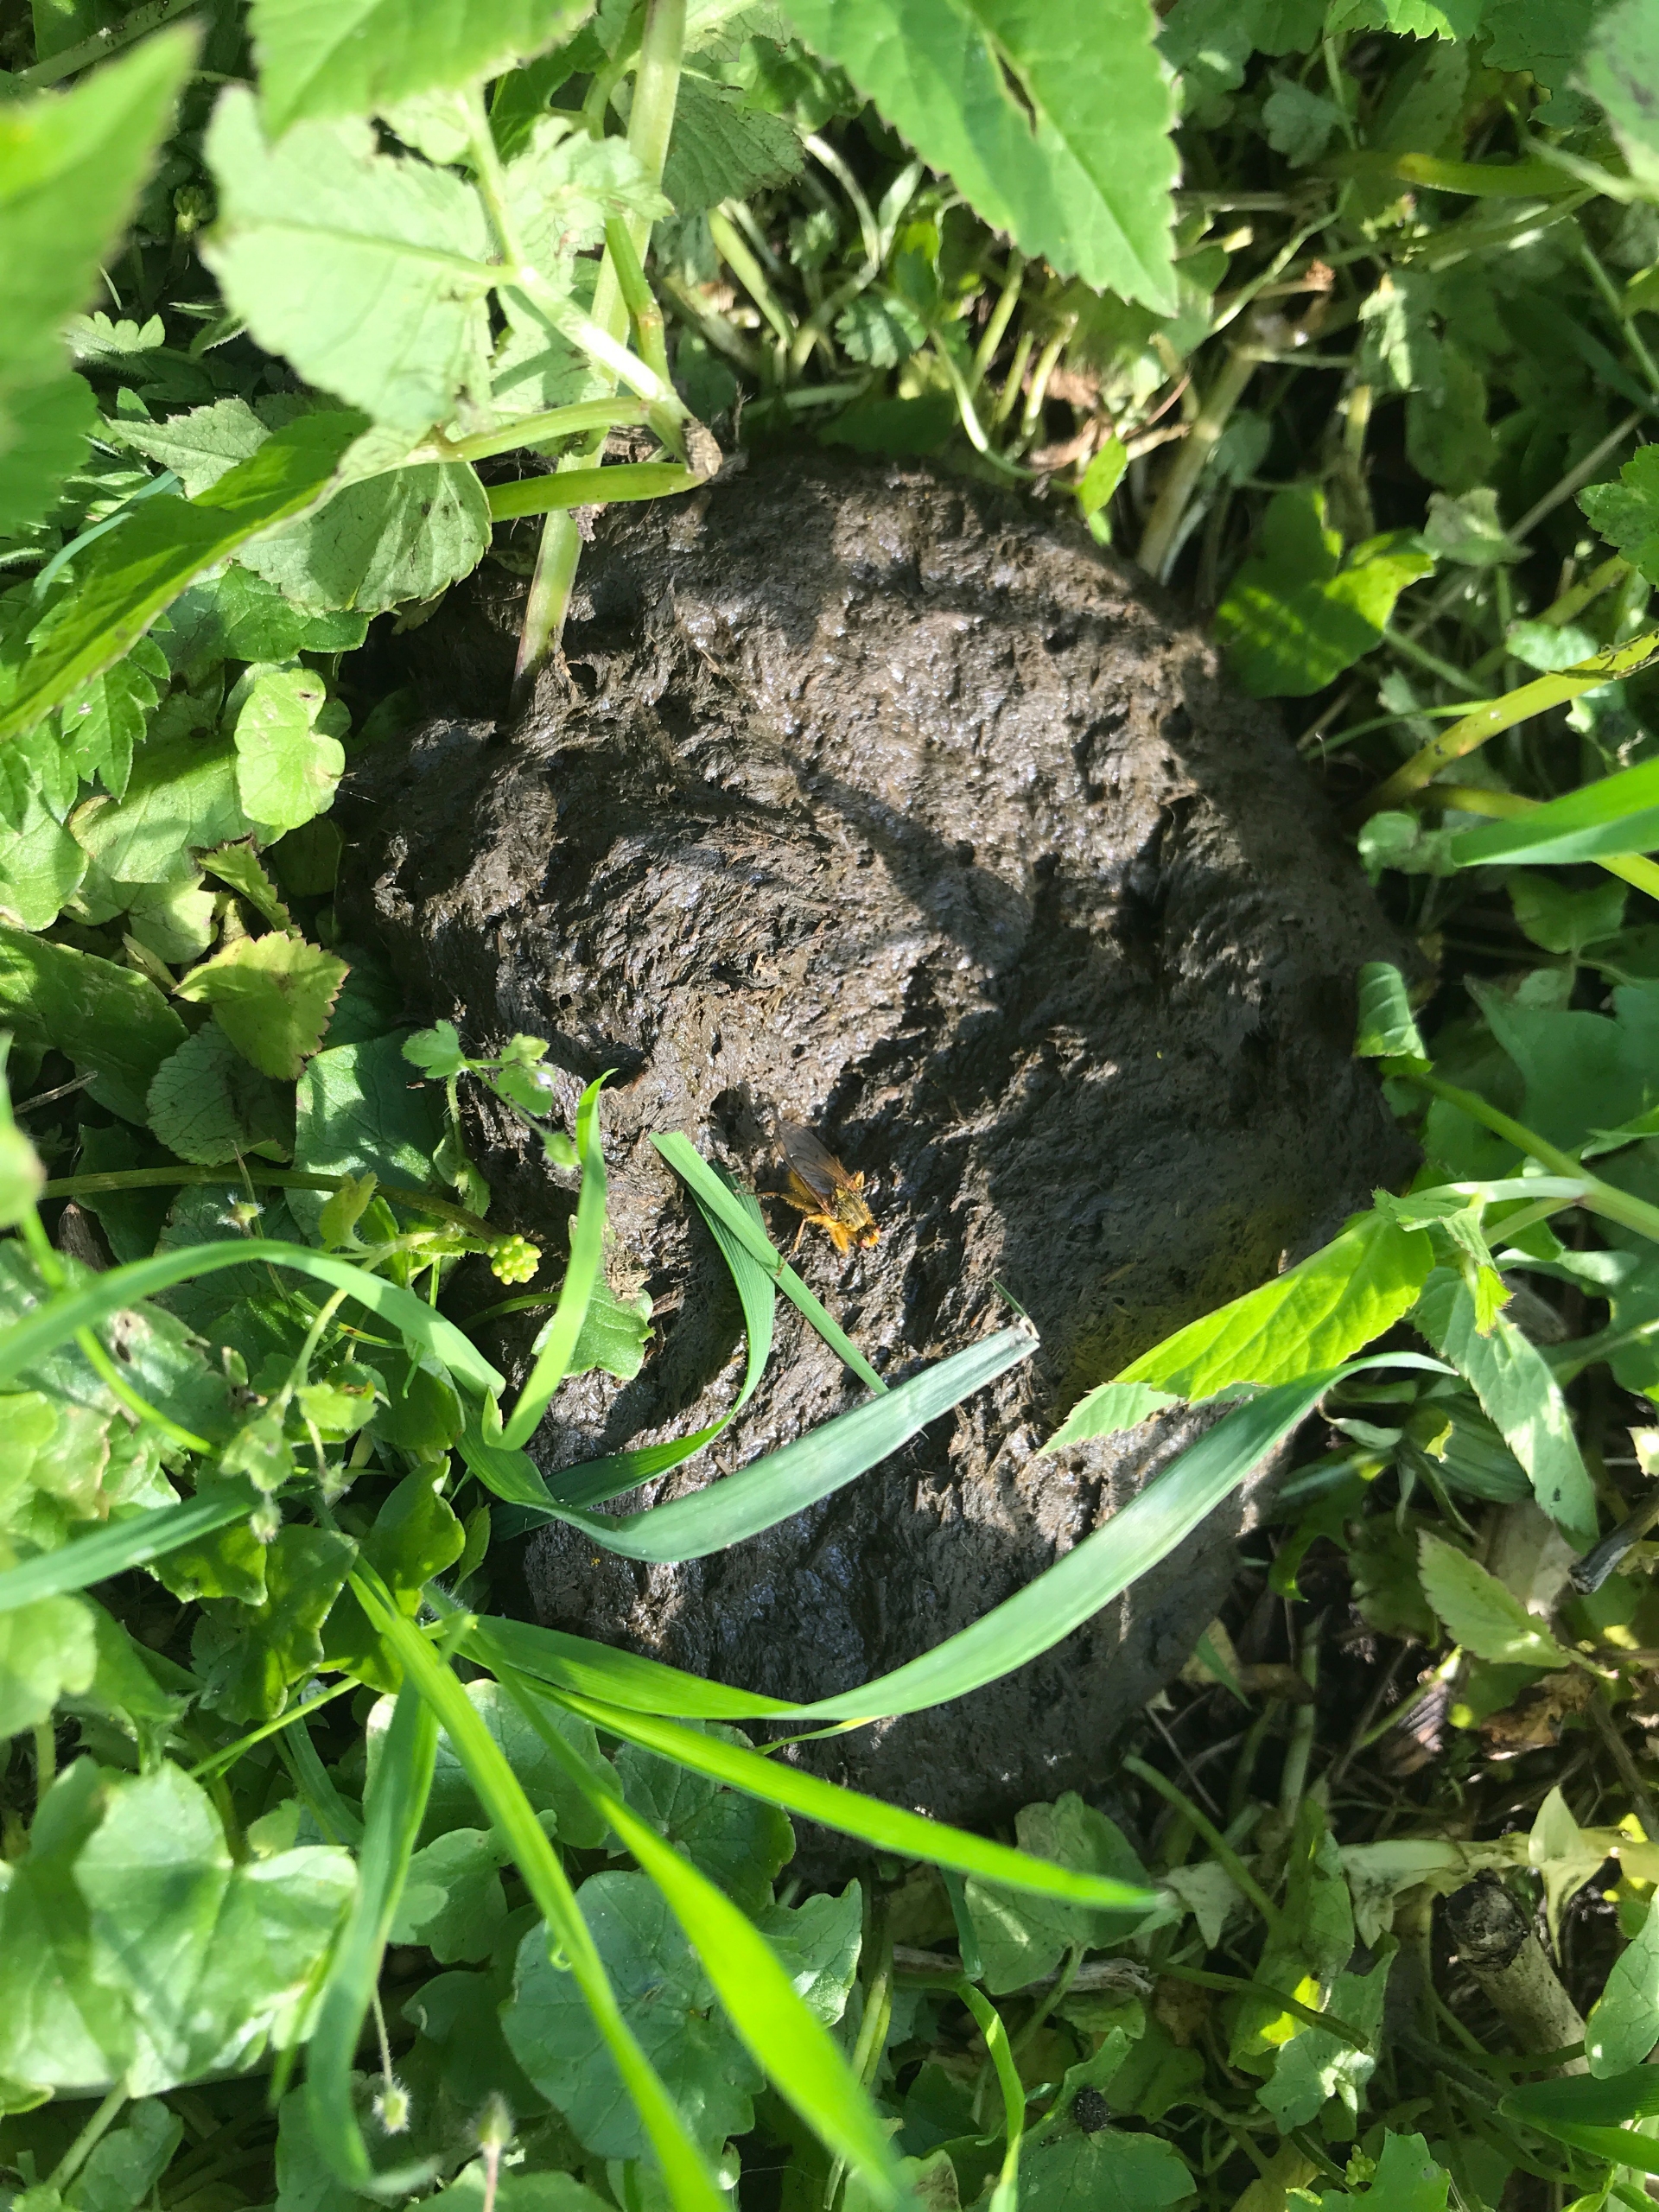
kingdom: Animalia
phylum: Arthropoda
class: Insecta
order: Diptera
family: Scathophagidae
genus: Scathophaga
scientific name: Scathophaga stercoraria
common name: Almindelig gødningsflue
